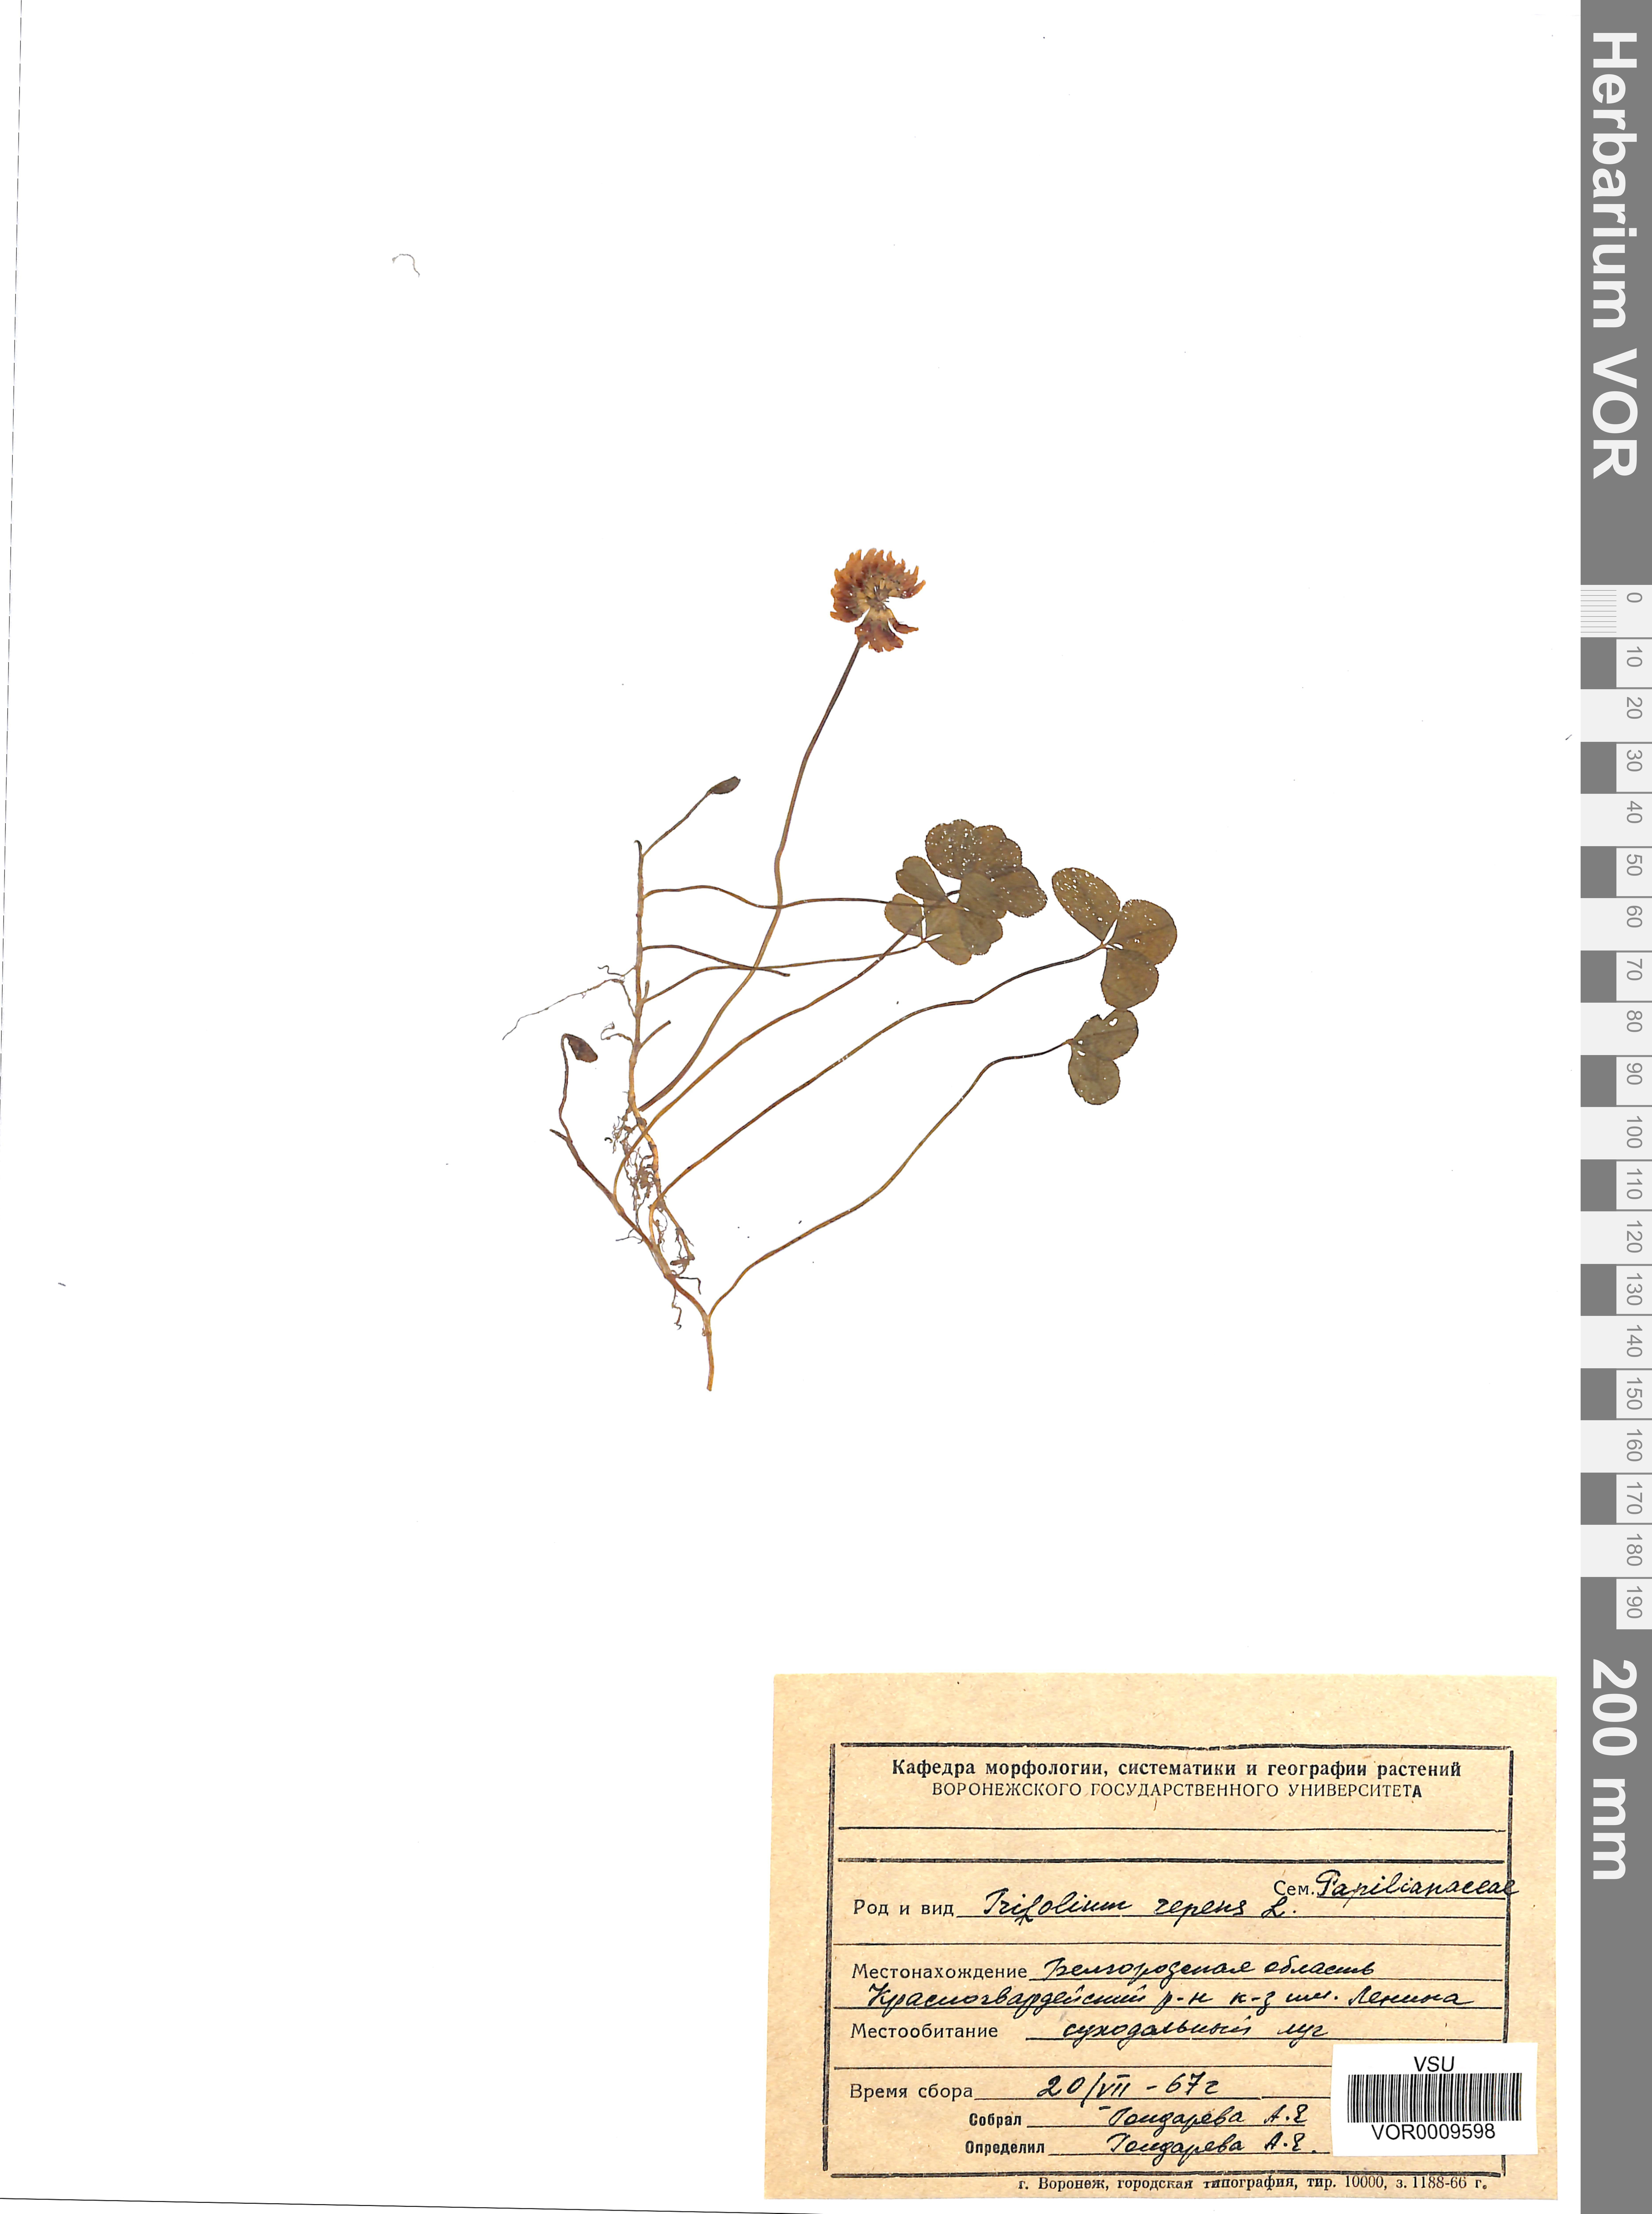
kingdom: Plantae
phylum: Tracheophyta
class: Magnoliopsida
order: Fabales
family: Fabaceae
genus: Trifolium
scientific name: Trifolium repens
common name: White clover
